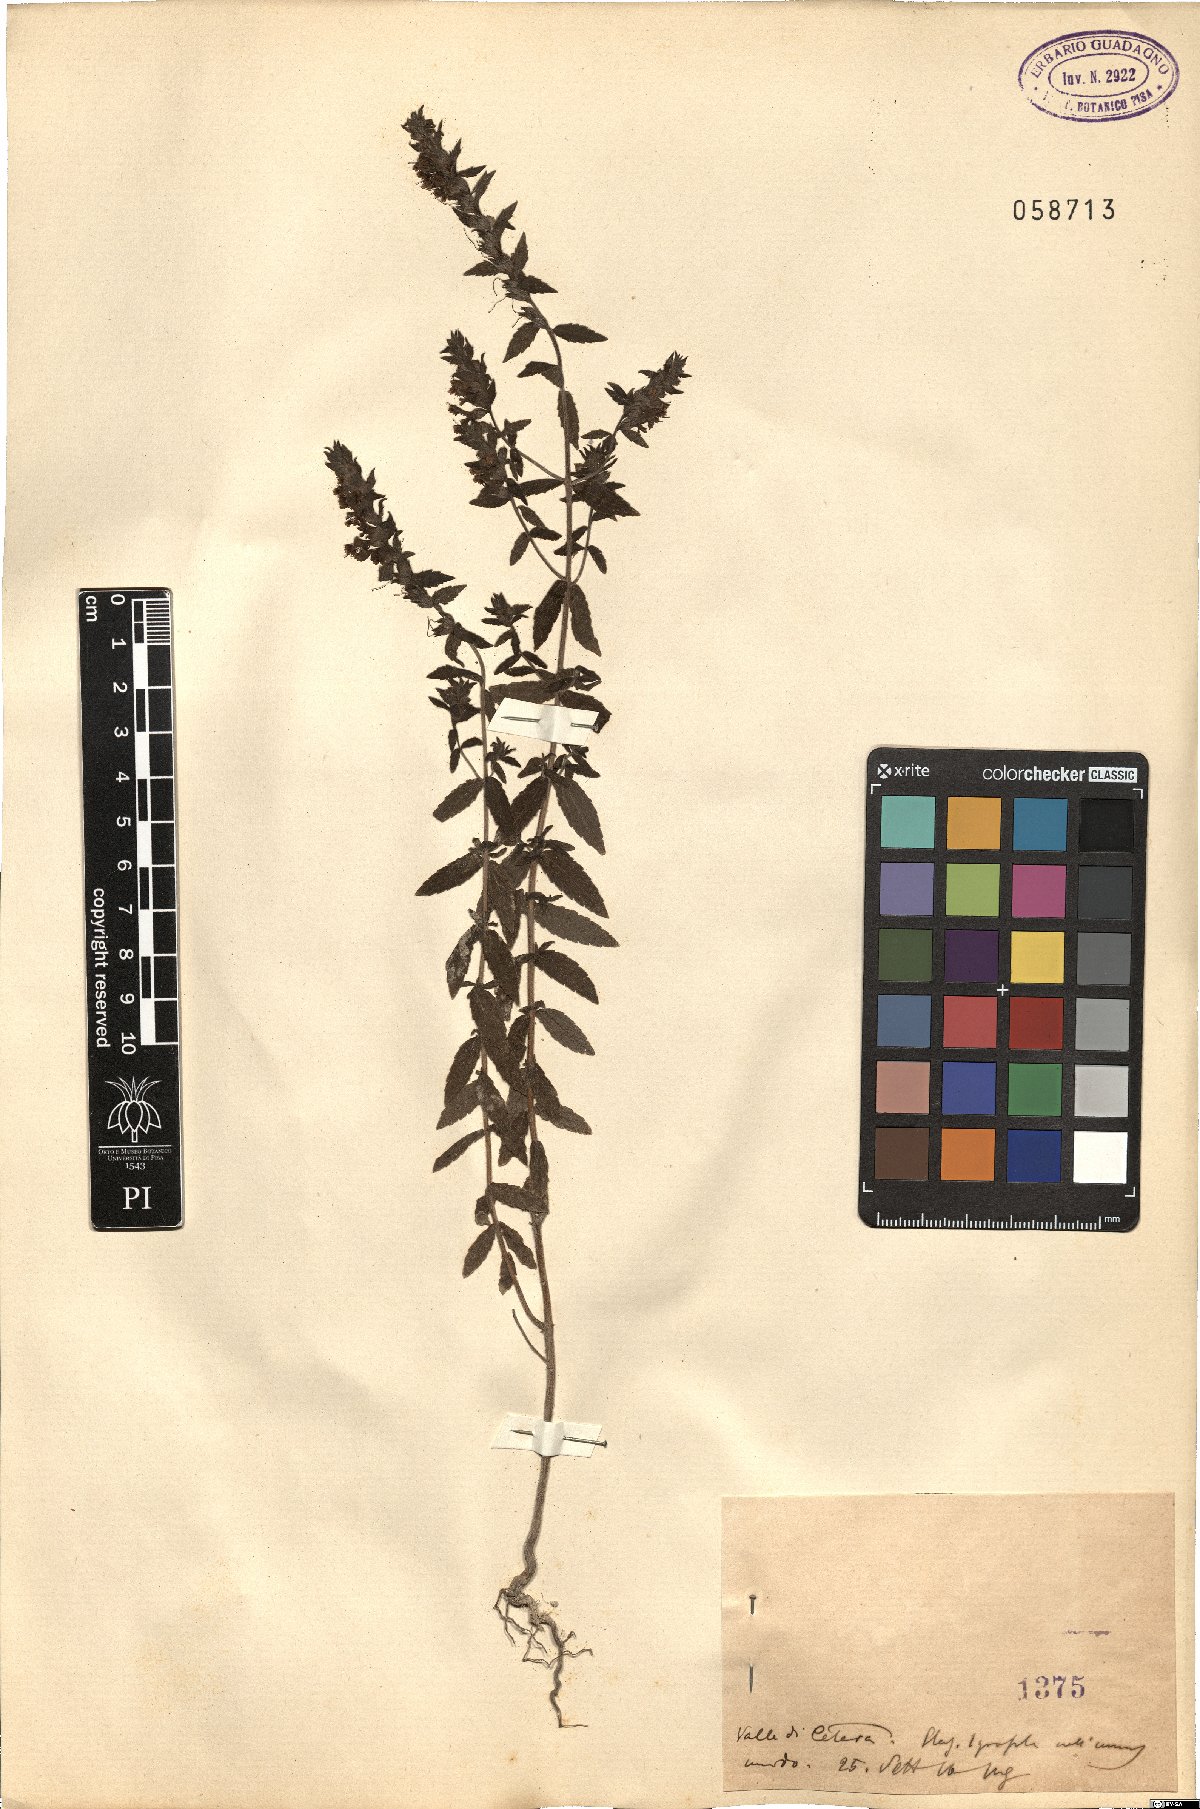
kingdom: Plantae
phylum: Tracheophyta
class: Magnoliopsida
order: Lamiales
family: Orobanchaceae
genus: Bartsia
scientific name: Bartsia
